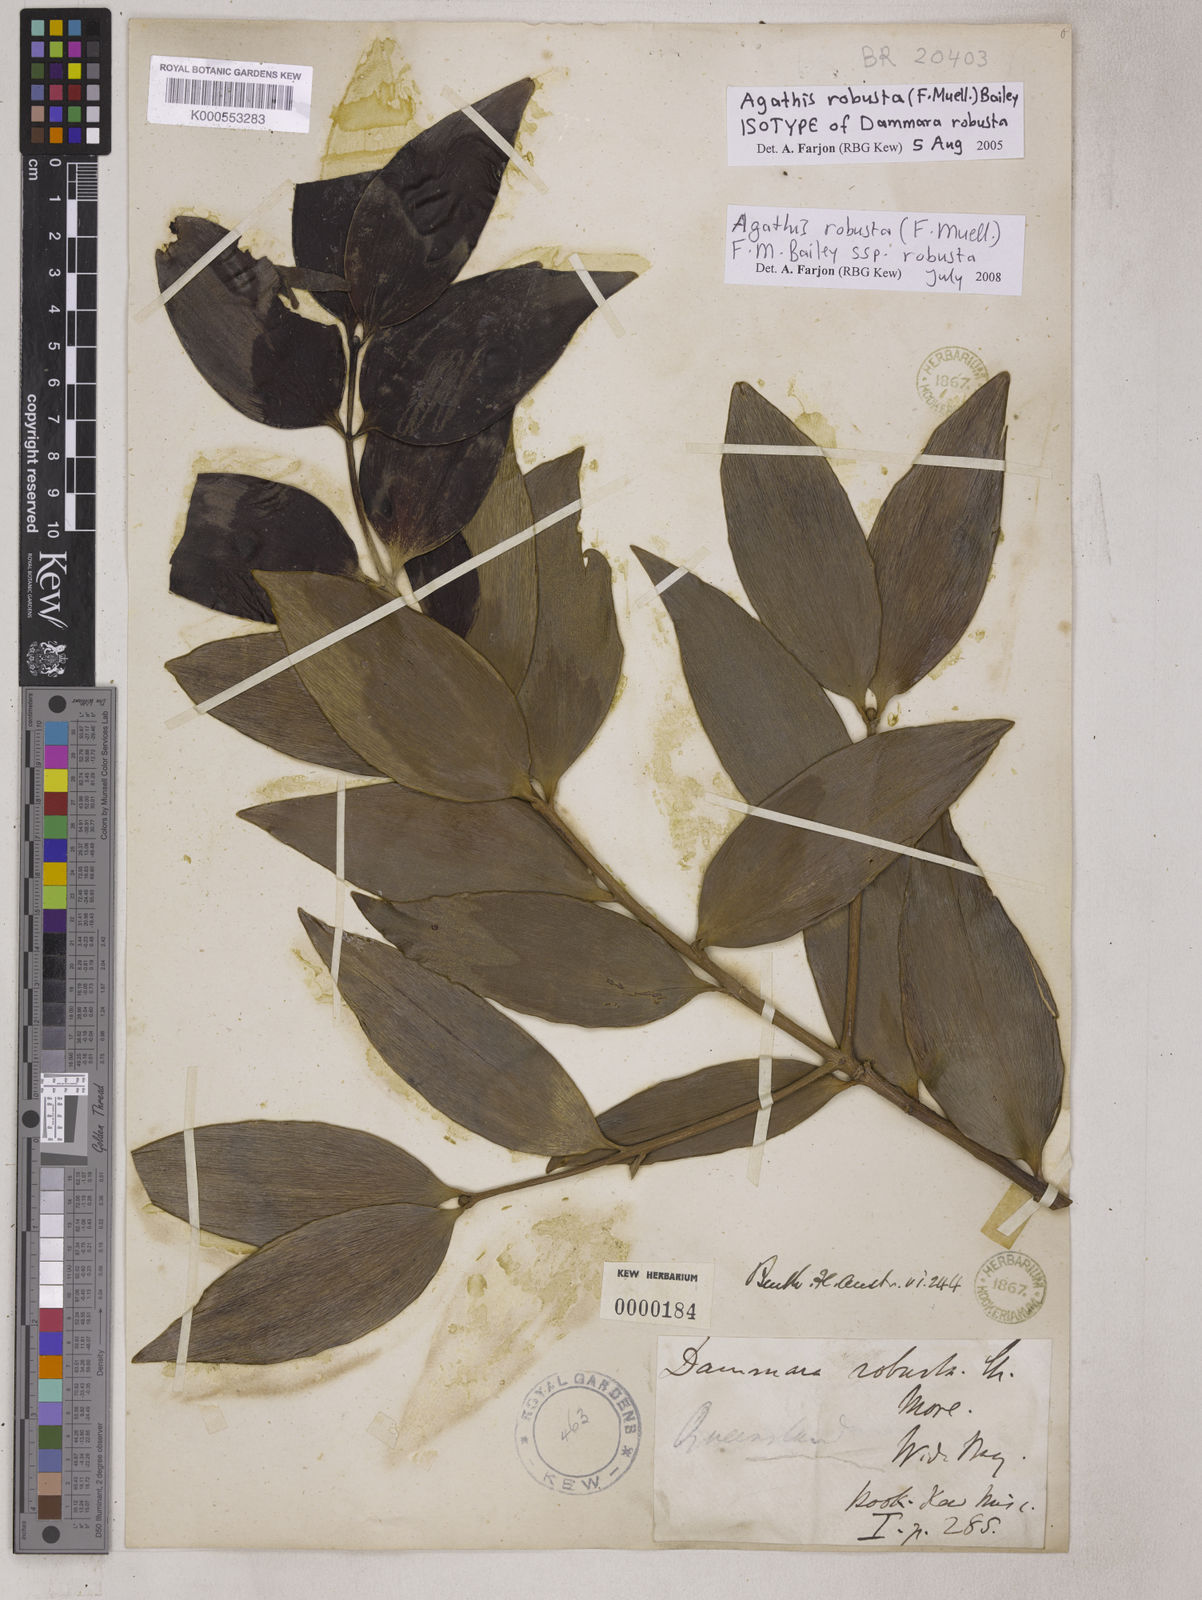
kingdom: Plantae
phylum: Tracheophyta
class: Pinopsida
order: Pinales
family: Araucariaceae
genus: Agathis
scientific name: Agathis robusta
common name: Australian-kauri
